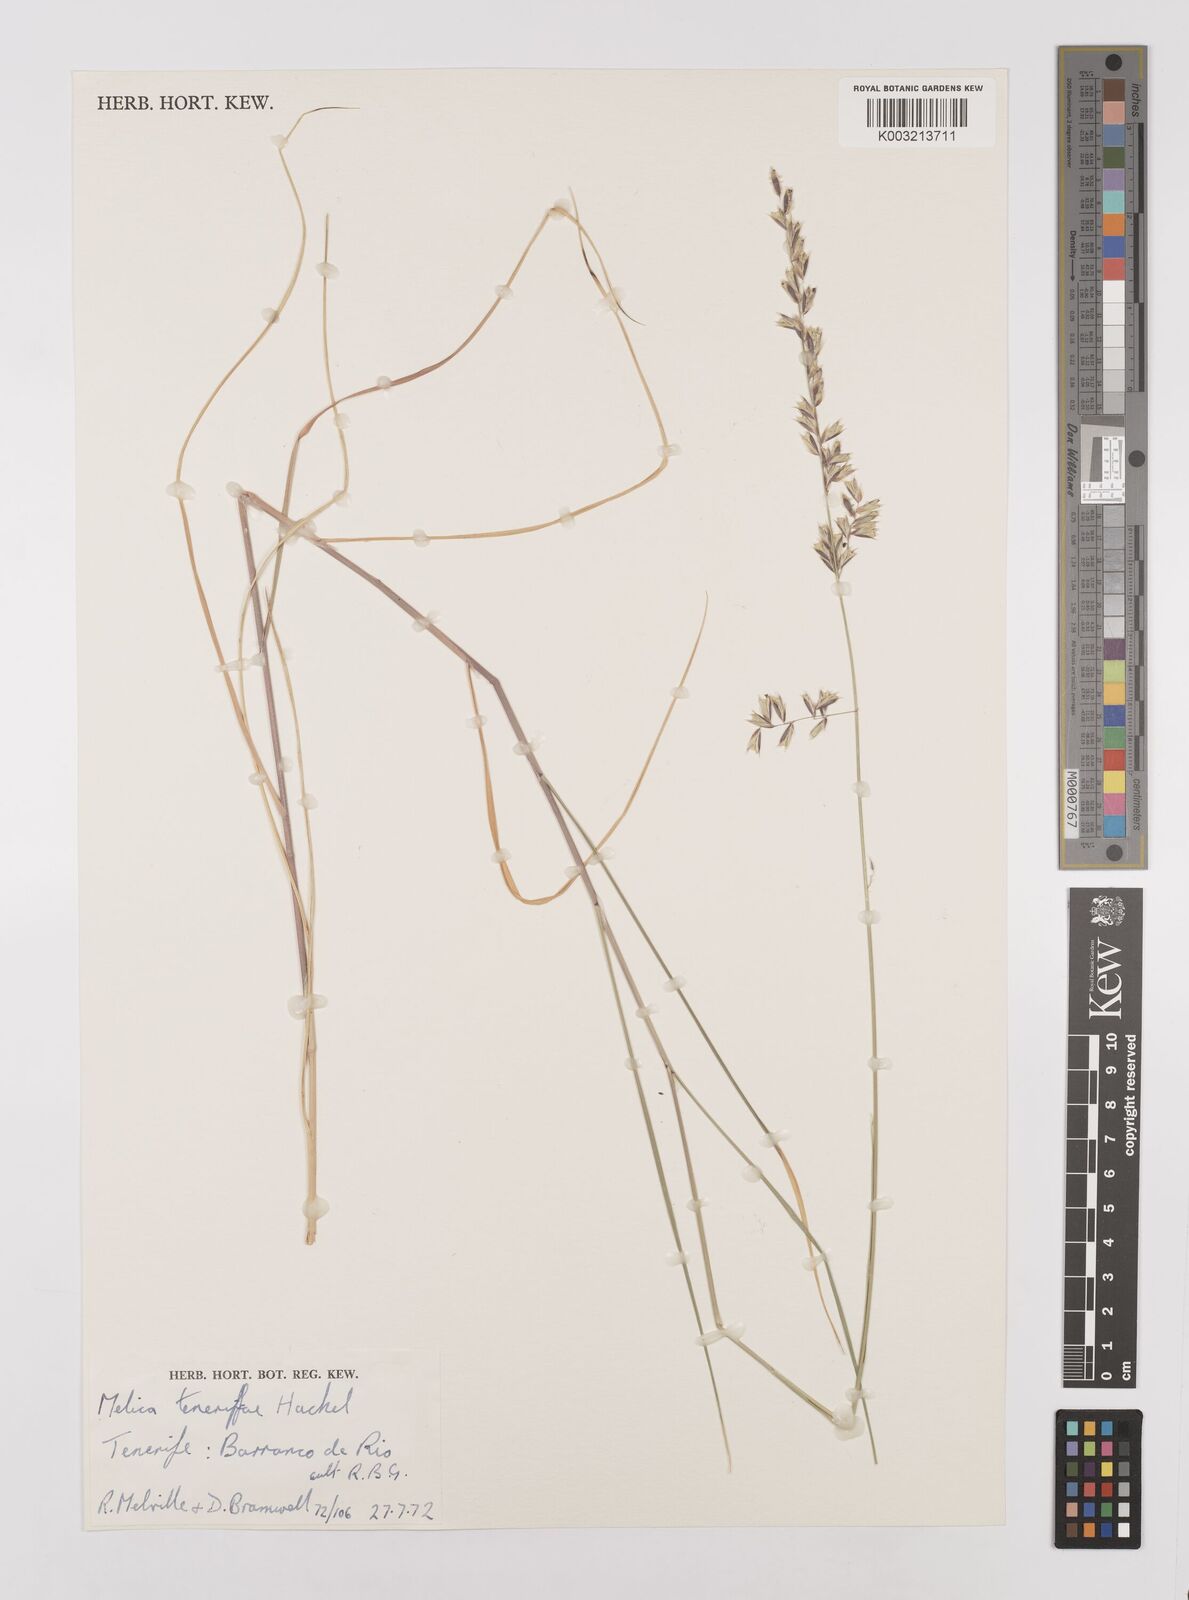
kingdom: Plantae
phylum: Tracheophyta
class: Liliopsida
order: Poales
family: Poaceae
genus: Melica
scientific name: Melica teneriffae
